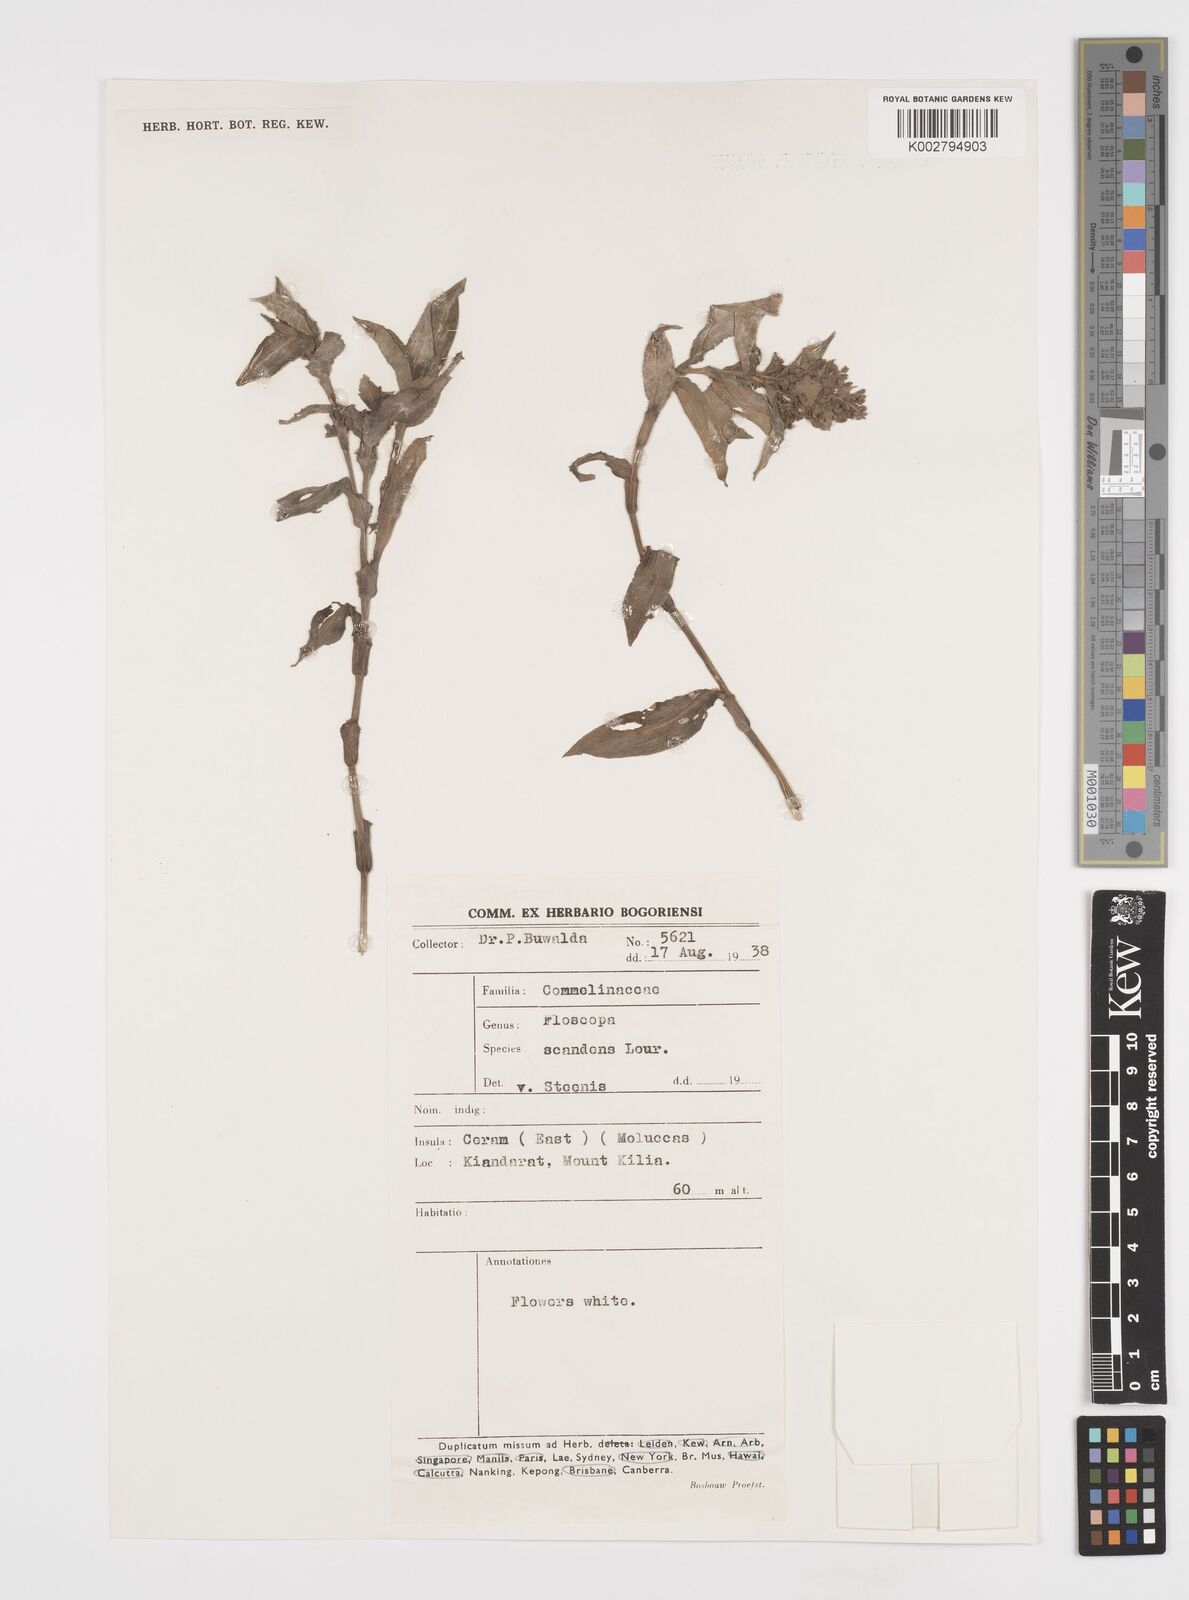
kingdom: Plantae
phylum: Tracheophyta
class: Liliopsida
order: Commelinales
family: Commelinaceae
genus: Floscopa
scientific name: Floscopa scandens
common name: Climbing flower cup
